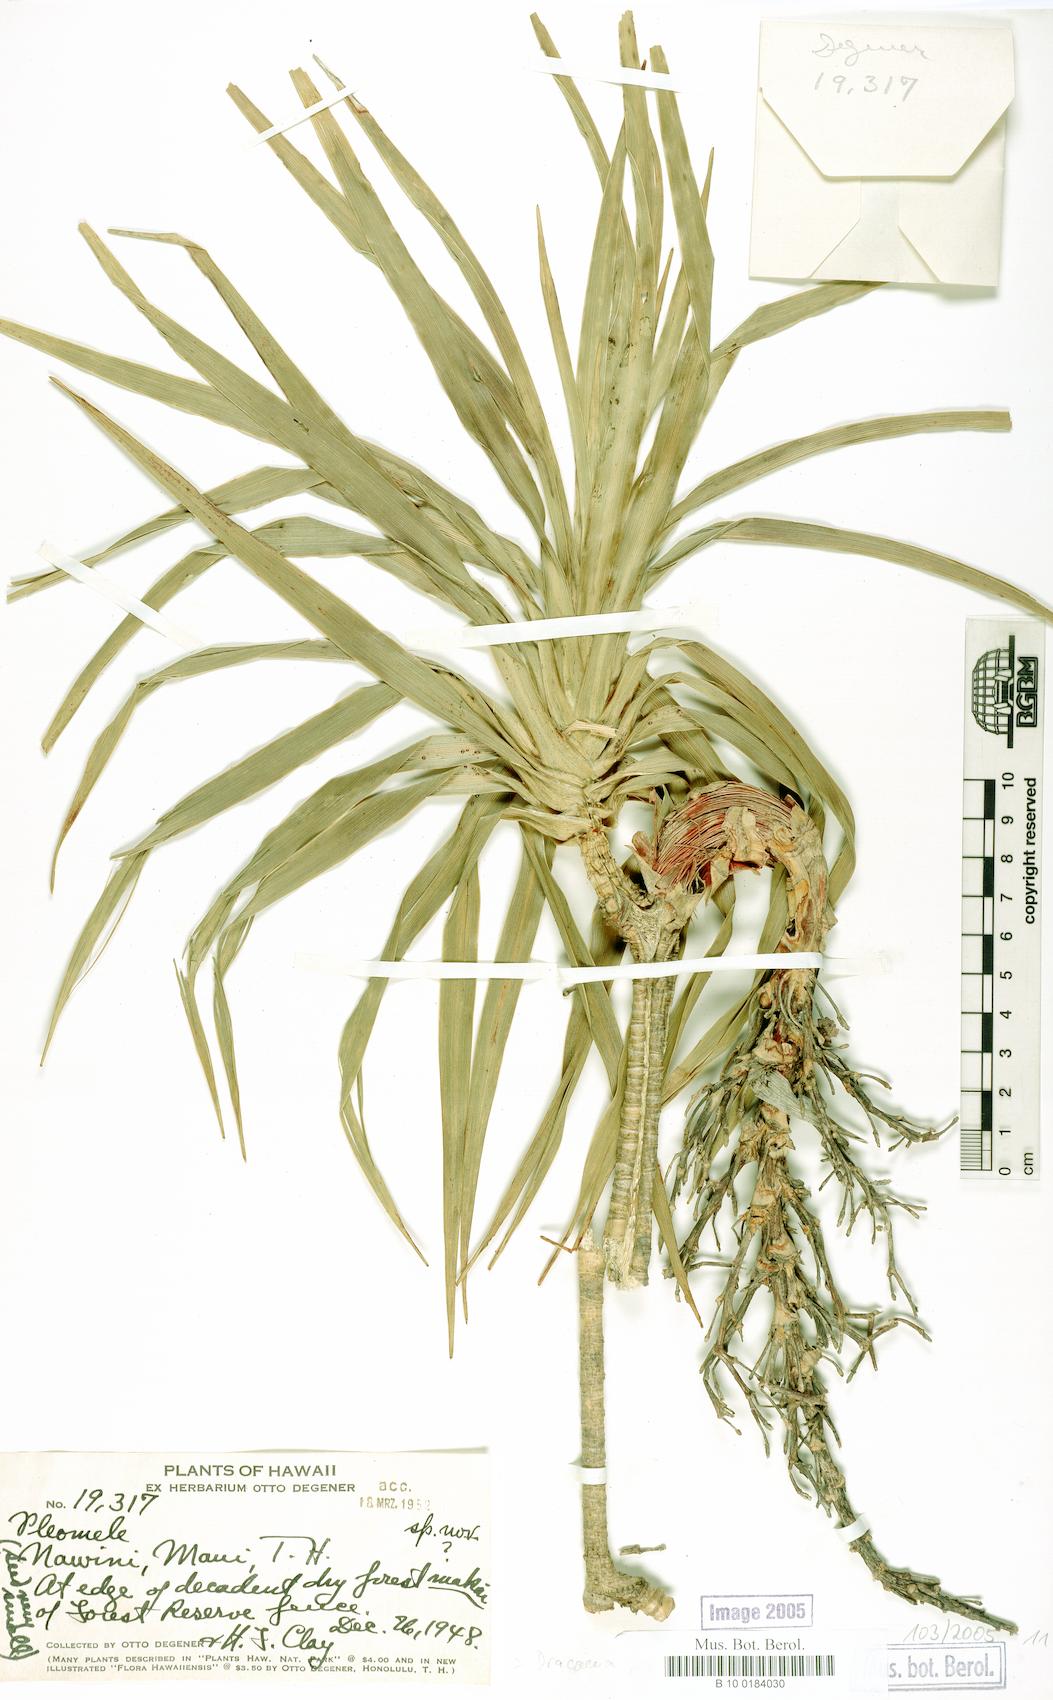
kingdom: Plantae
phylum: Tracheophyta
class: Liliopsida
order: Asparagales
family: Asparagaceae
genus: Dracaena
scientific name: Dracaena
